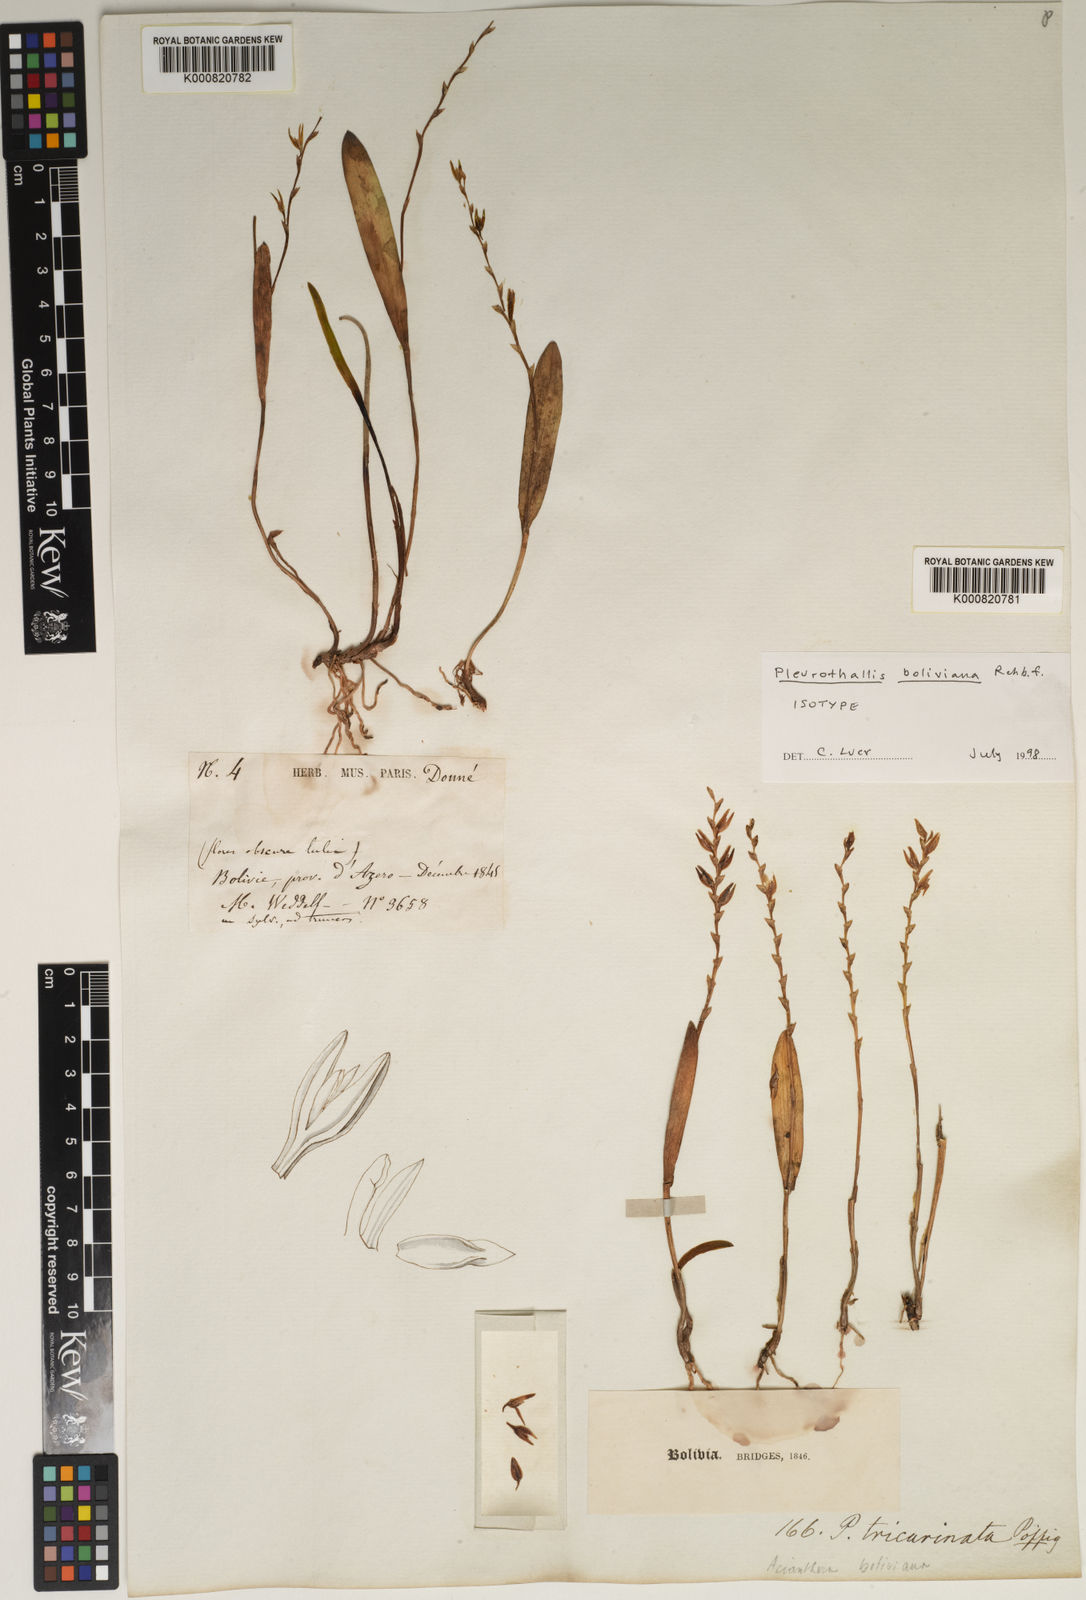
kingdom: Plantae
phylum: Tracheophyta
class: Liliopsida
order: Asparagales
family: Orchidaceae
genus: Acianthera
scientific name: Acianthera boliviana
